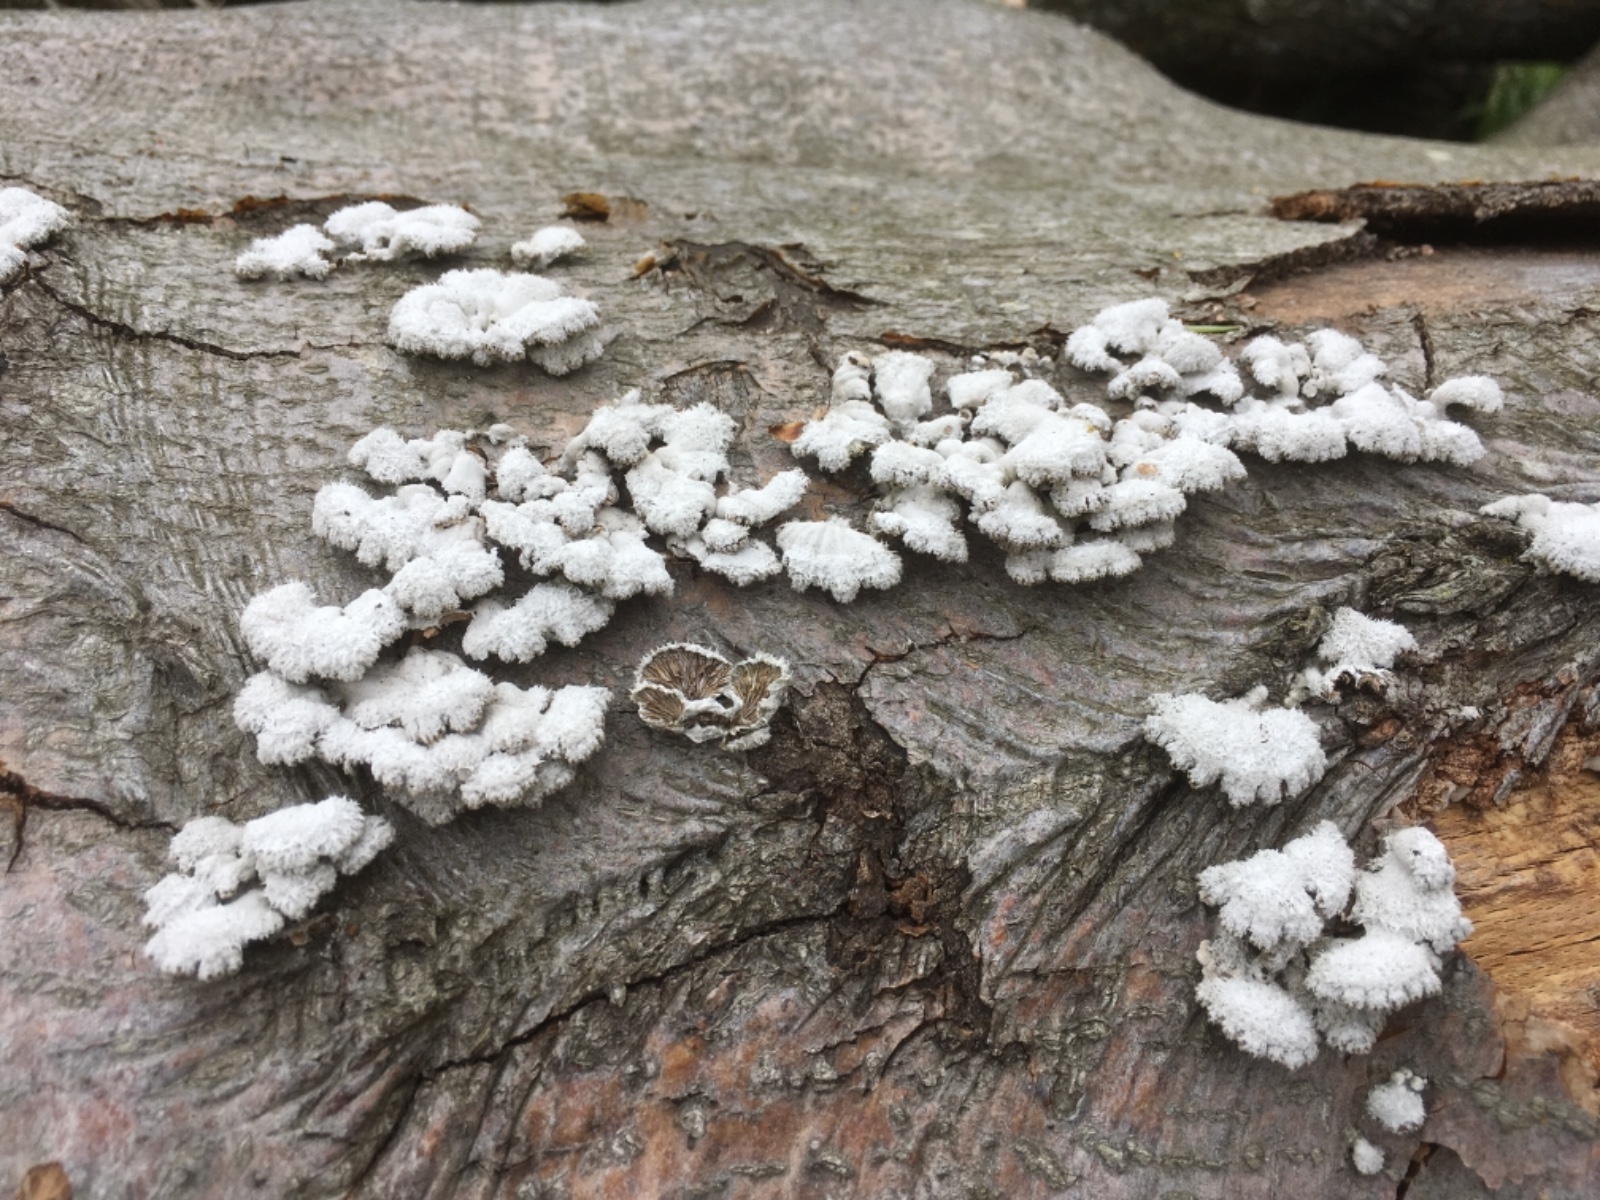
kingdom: Fungi
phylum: Basidiomycota
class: Agaricomycetes
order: Agaricales
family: Schizophyllaceae
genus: Schizophyllum
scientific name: Schizophyllum commune
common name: kløvblad
